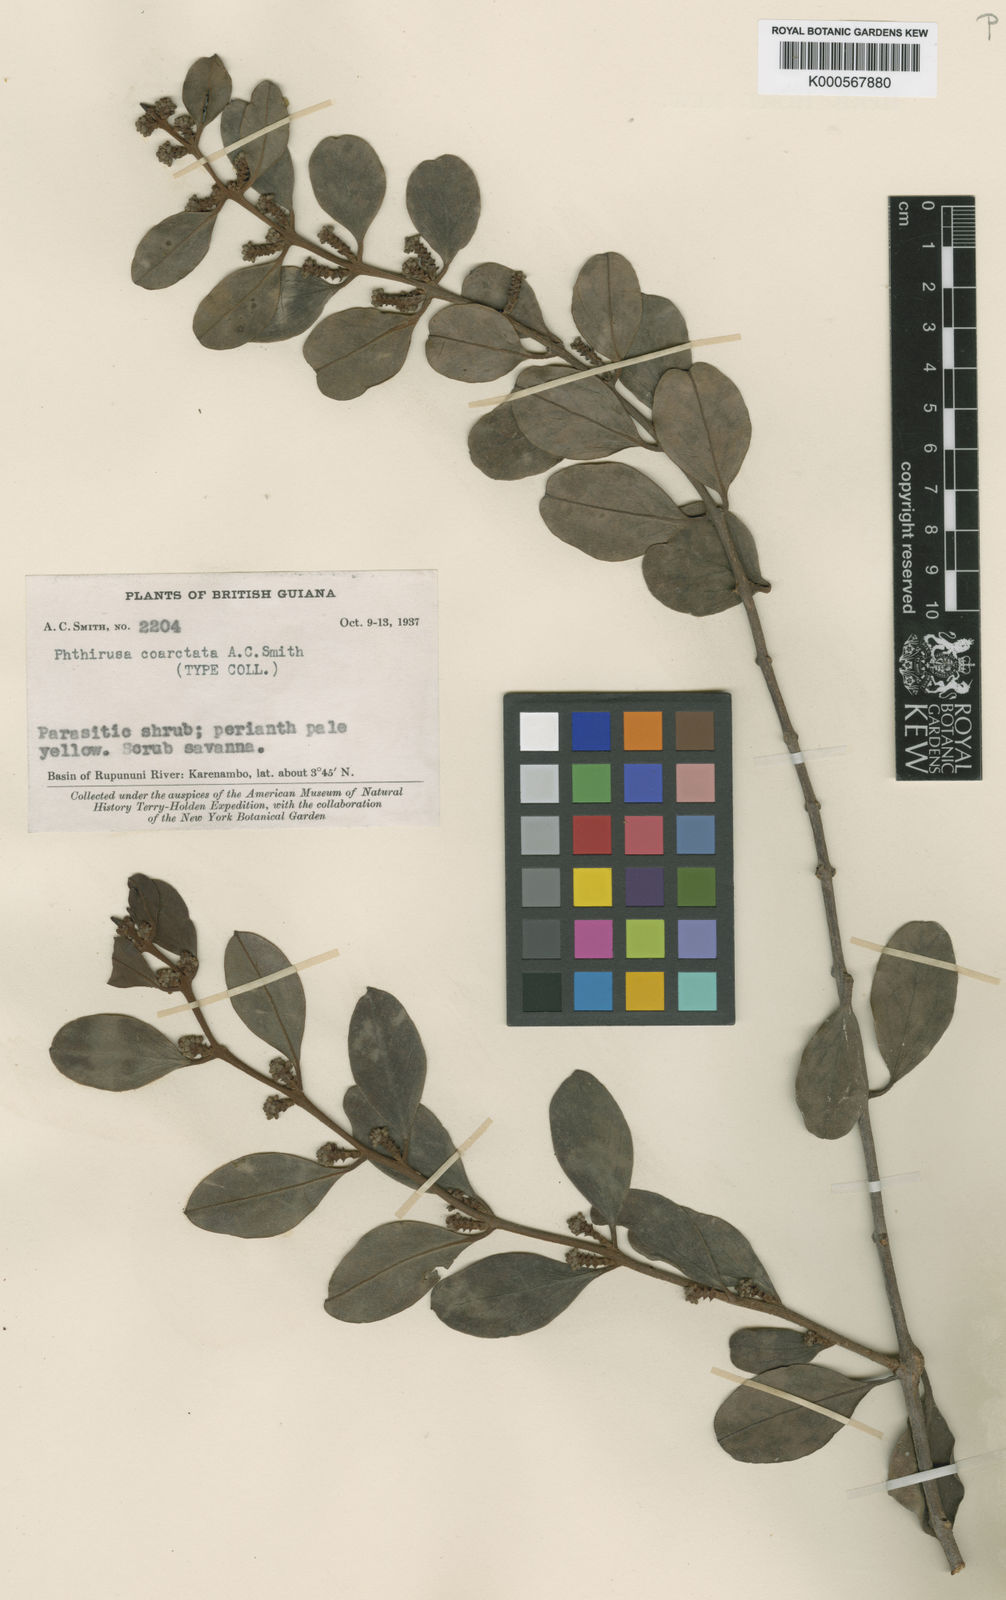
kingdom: Plantae
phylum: Tracheophyta
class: Magnoliopsida
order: Santalales
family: Loranthaceae
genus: Passovia
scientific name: Passovia coarctata
